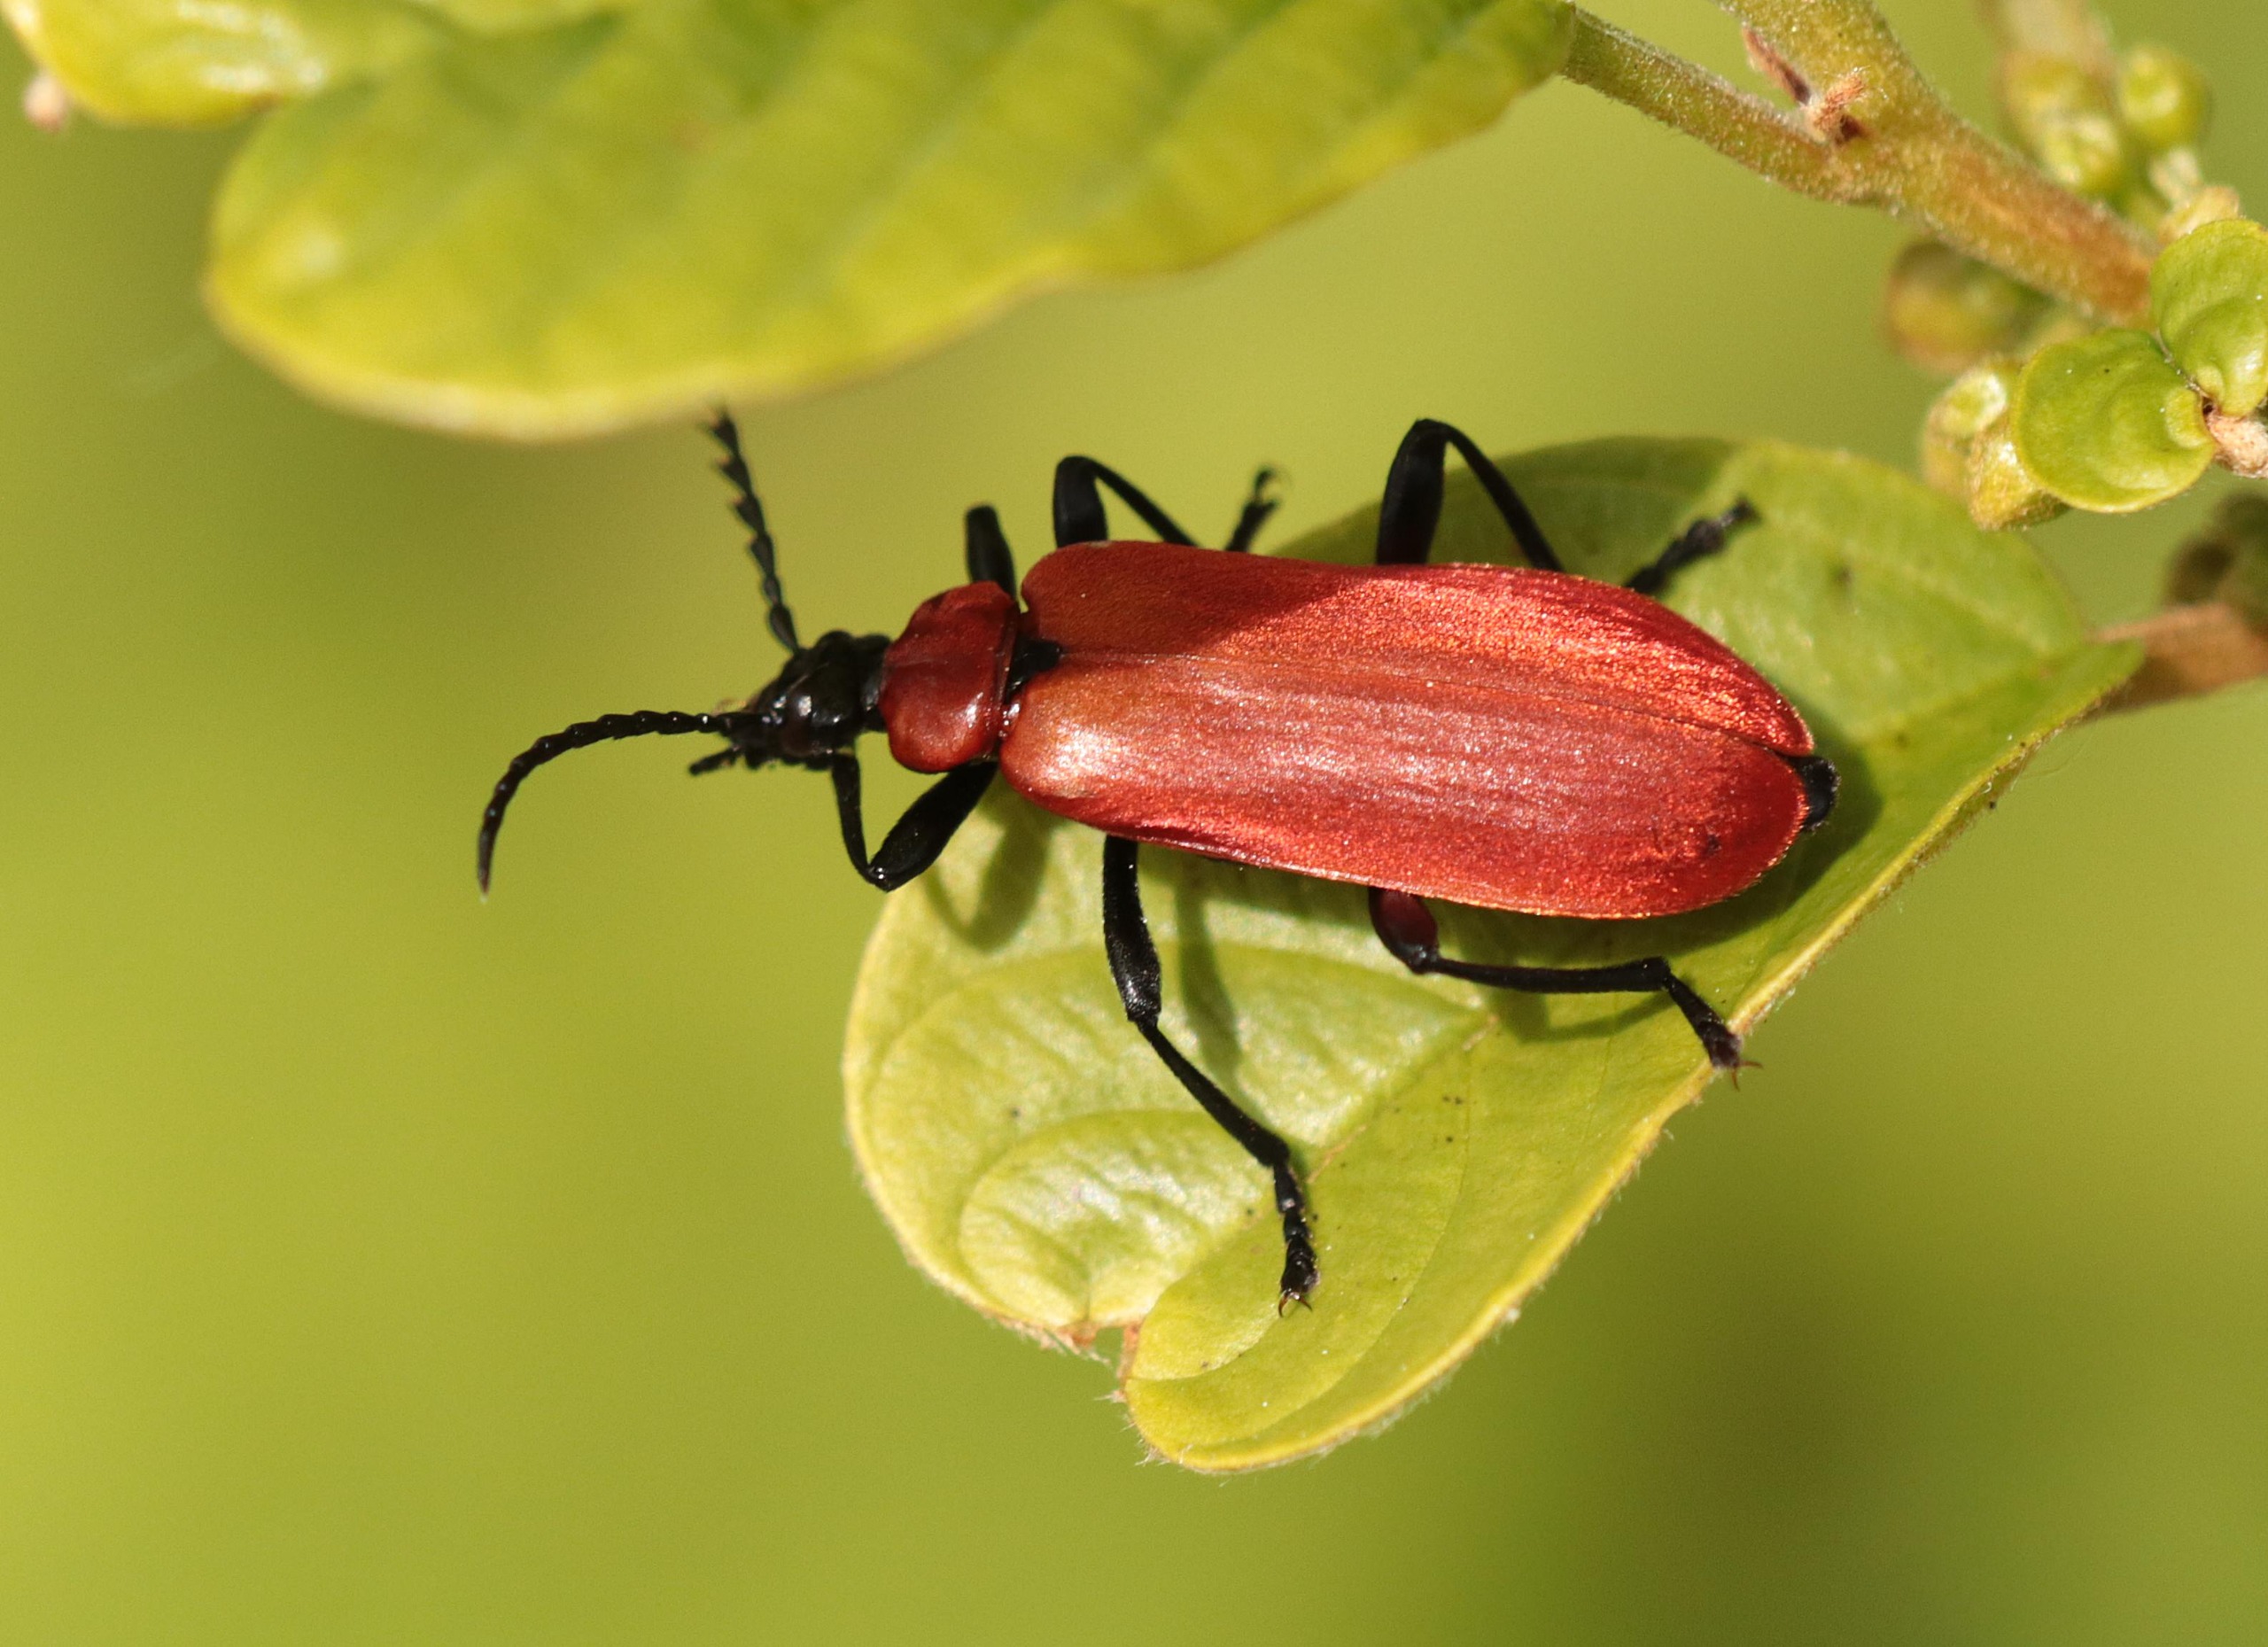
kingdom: Animalia
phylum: Arthropoda
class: Insecta
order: Coleoptera
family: Pyrochroidae
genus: Pyrochroa
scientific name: Pyrochroa coccinea
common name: Sorthovedet kardinalbille
